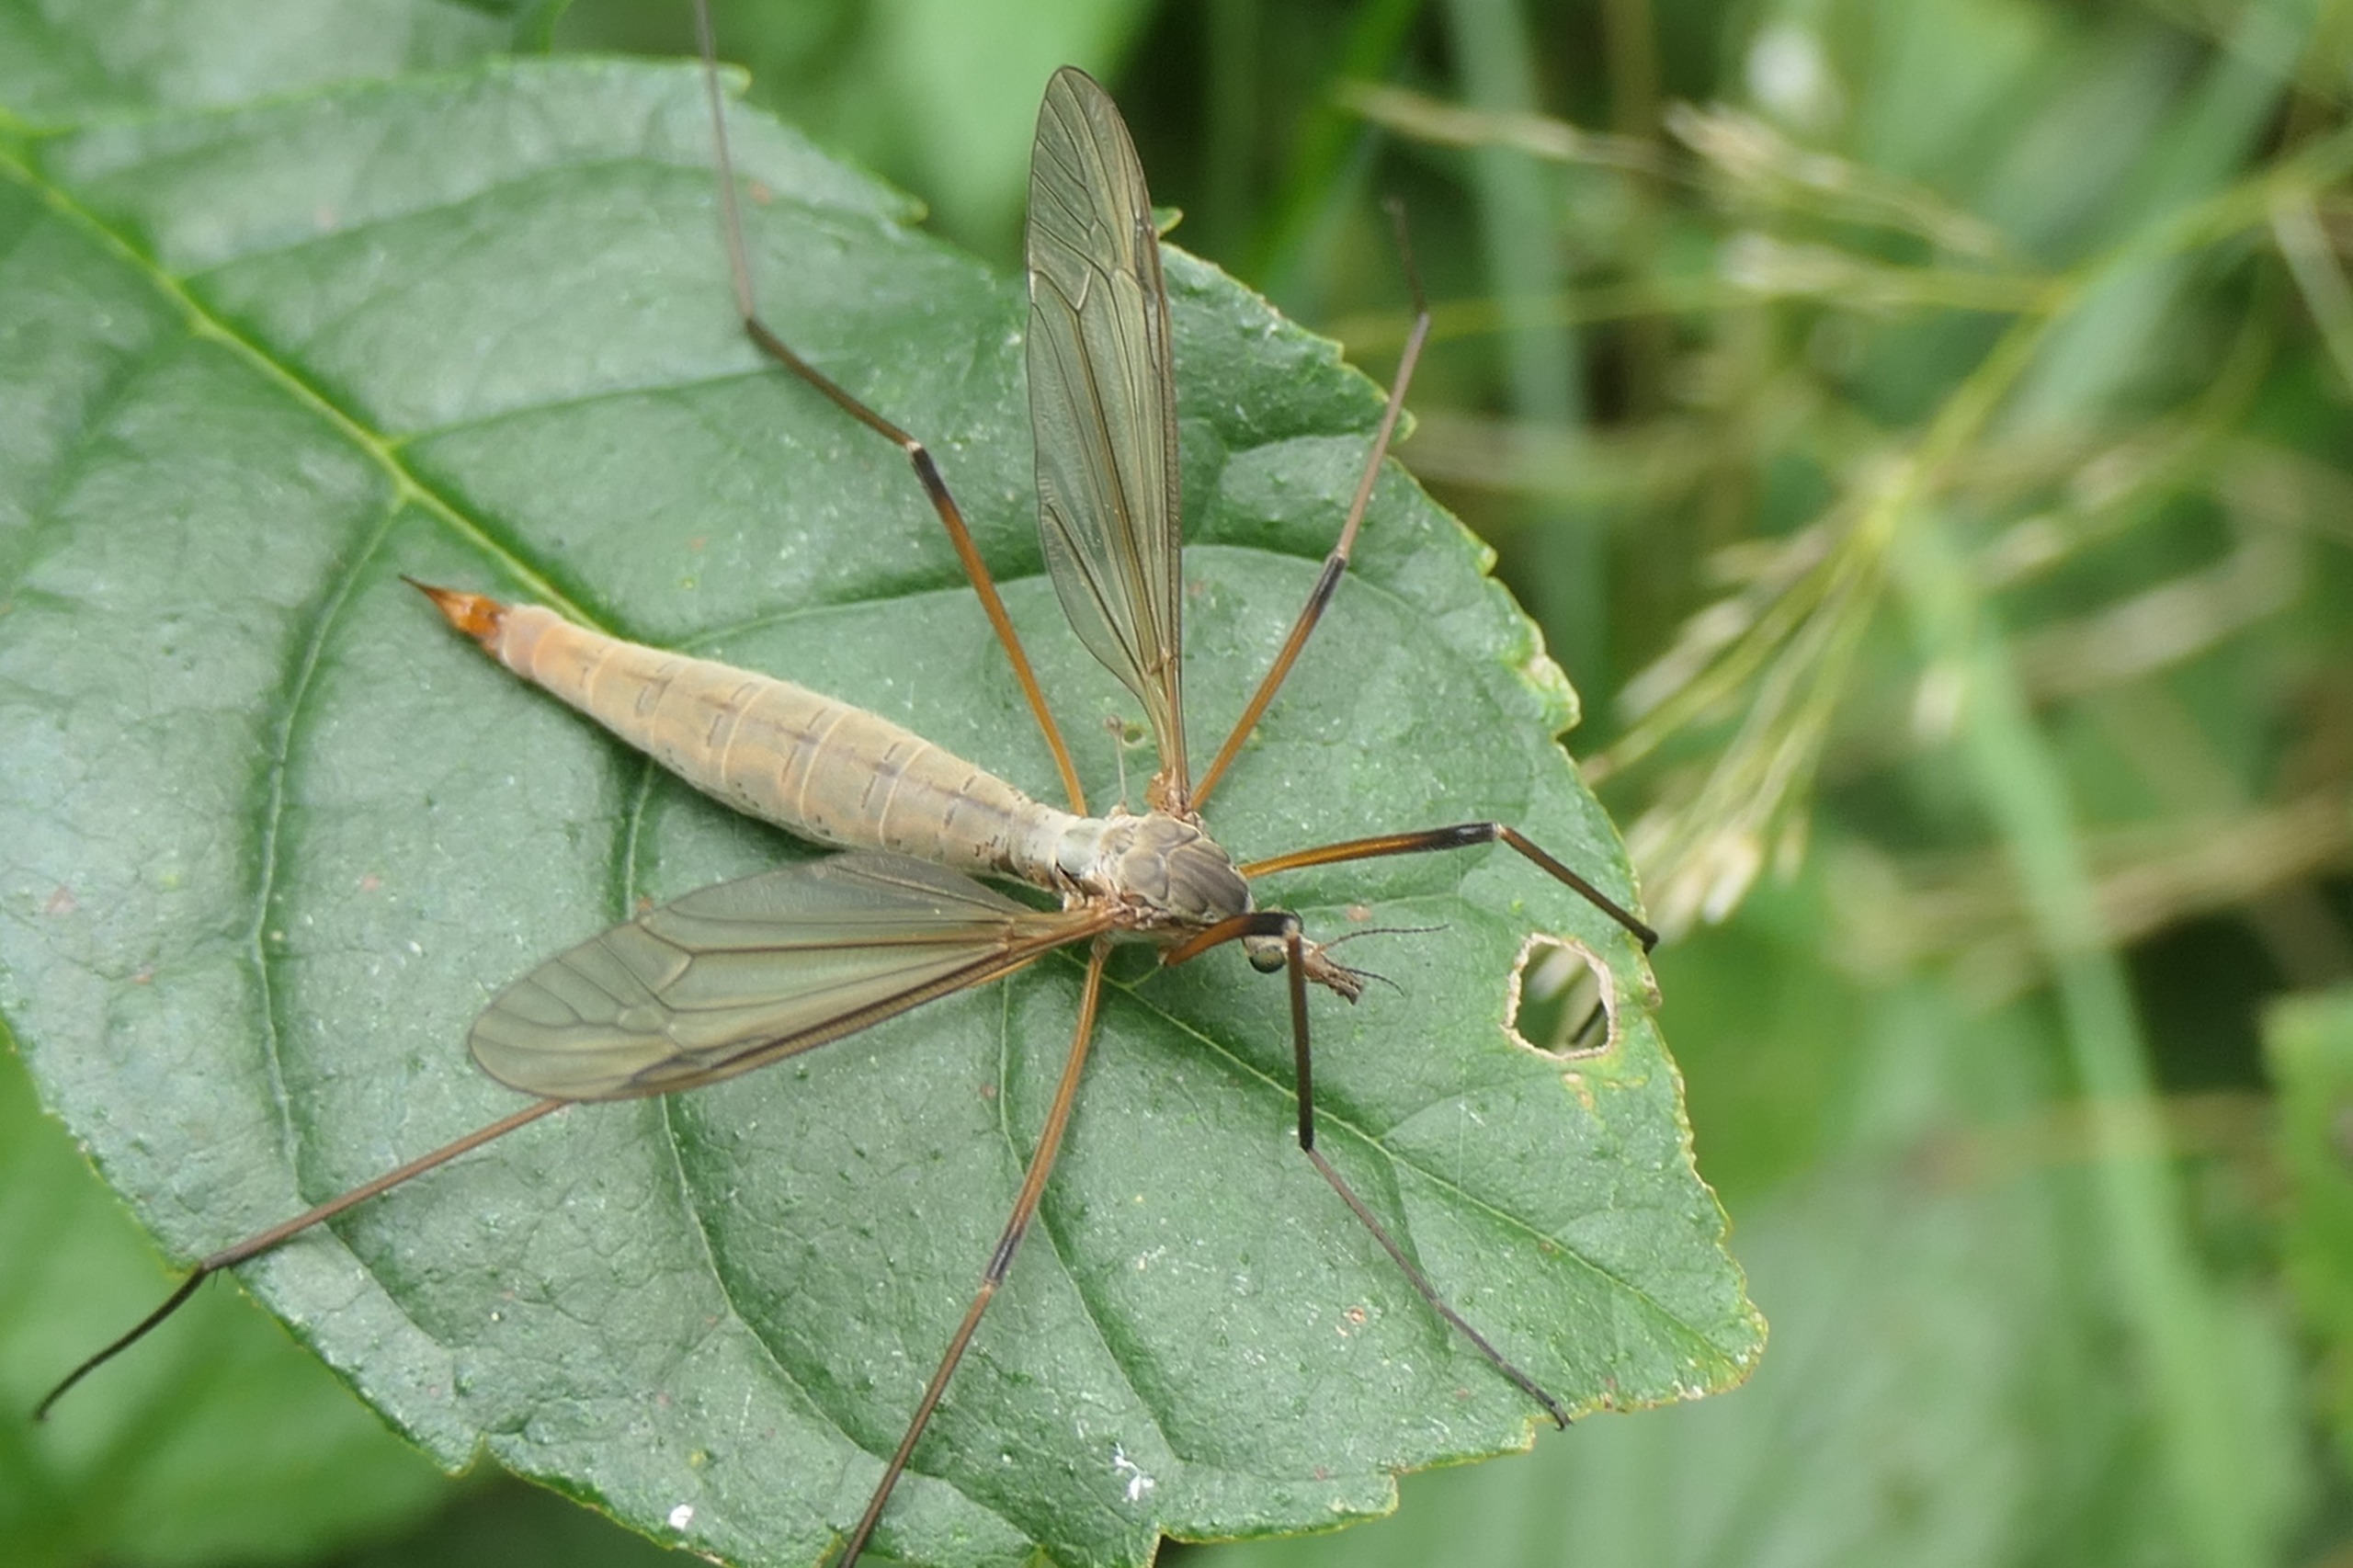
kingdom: Animalia
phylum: Arthropoda
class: Insecta
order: Diptera
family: Tipulidae
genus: Tipula
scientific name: Tipula paludosa
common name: Mosestankelben
